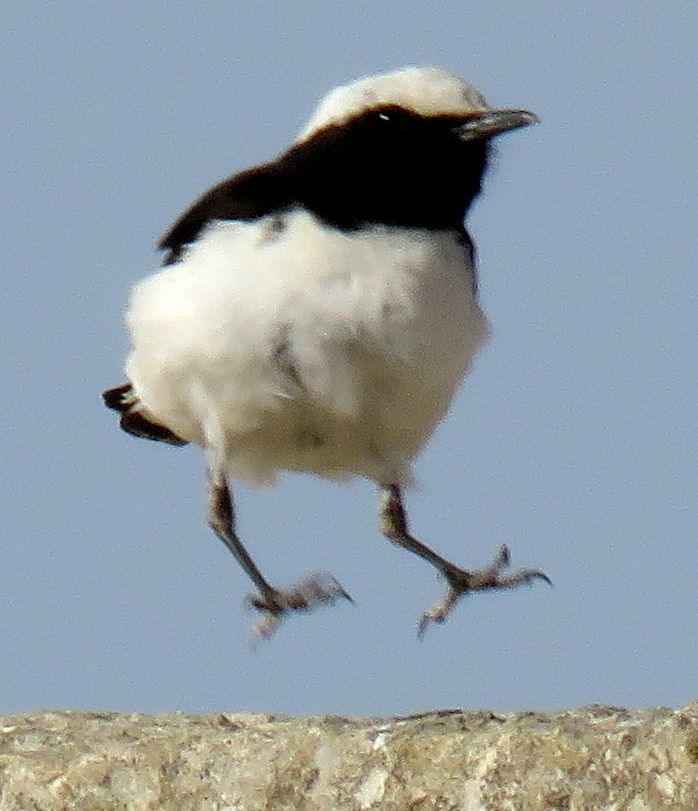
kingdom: Animalia
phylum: Chordata
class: Aves
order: Passeriformes
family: Muscicapidae
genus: Oenanthe
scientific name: Oenanthe finschii
